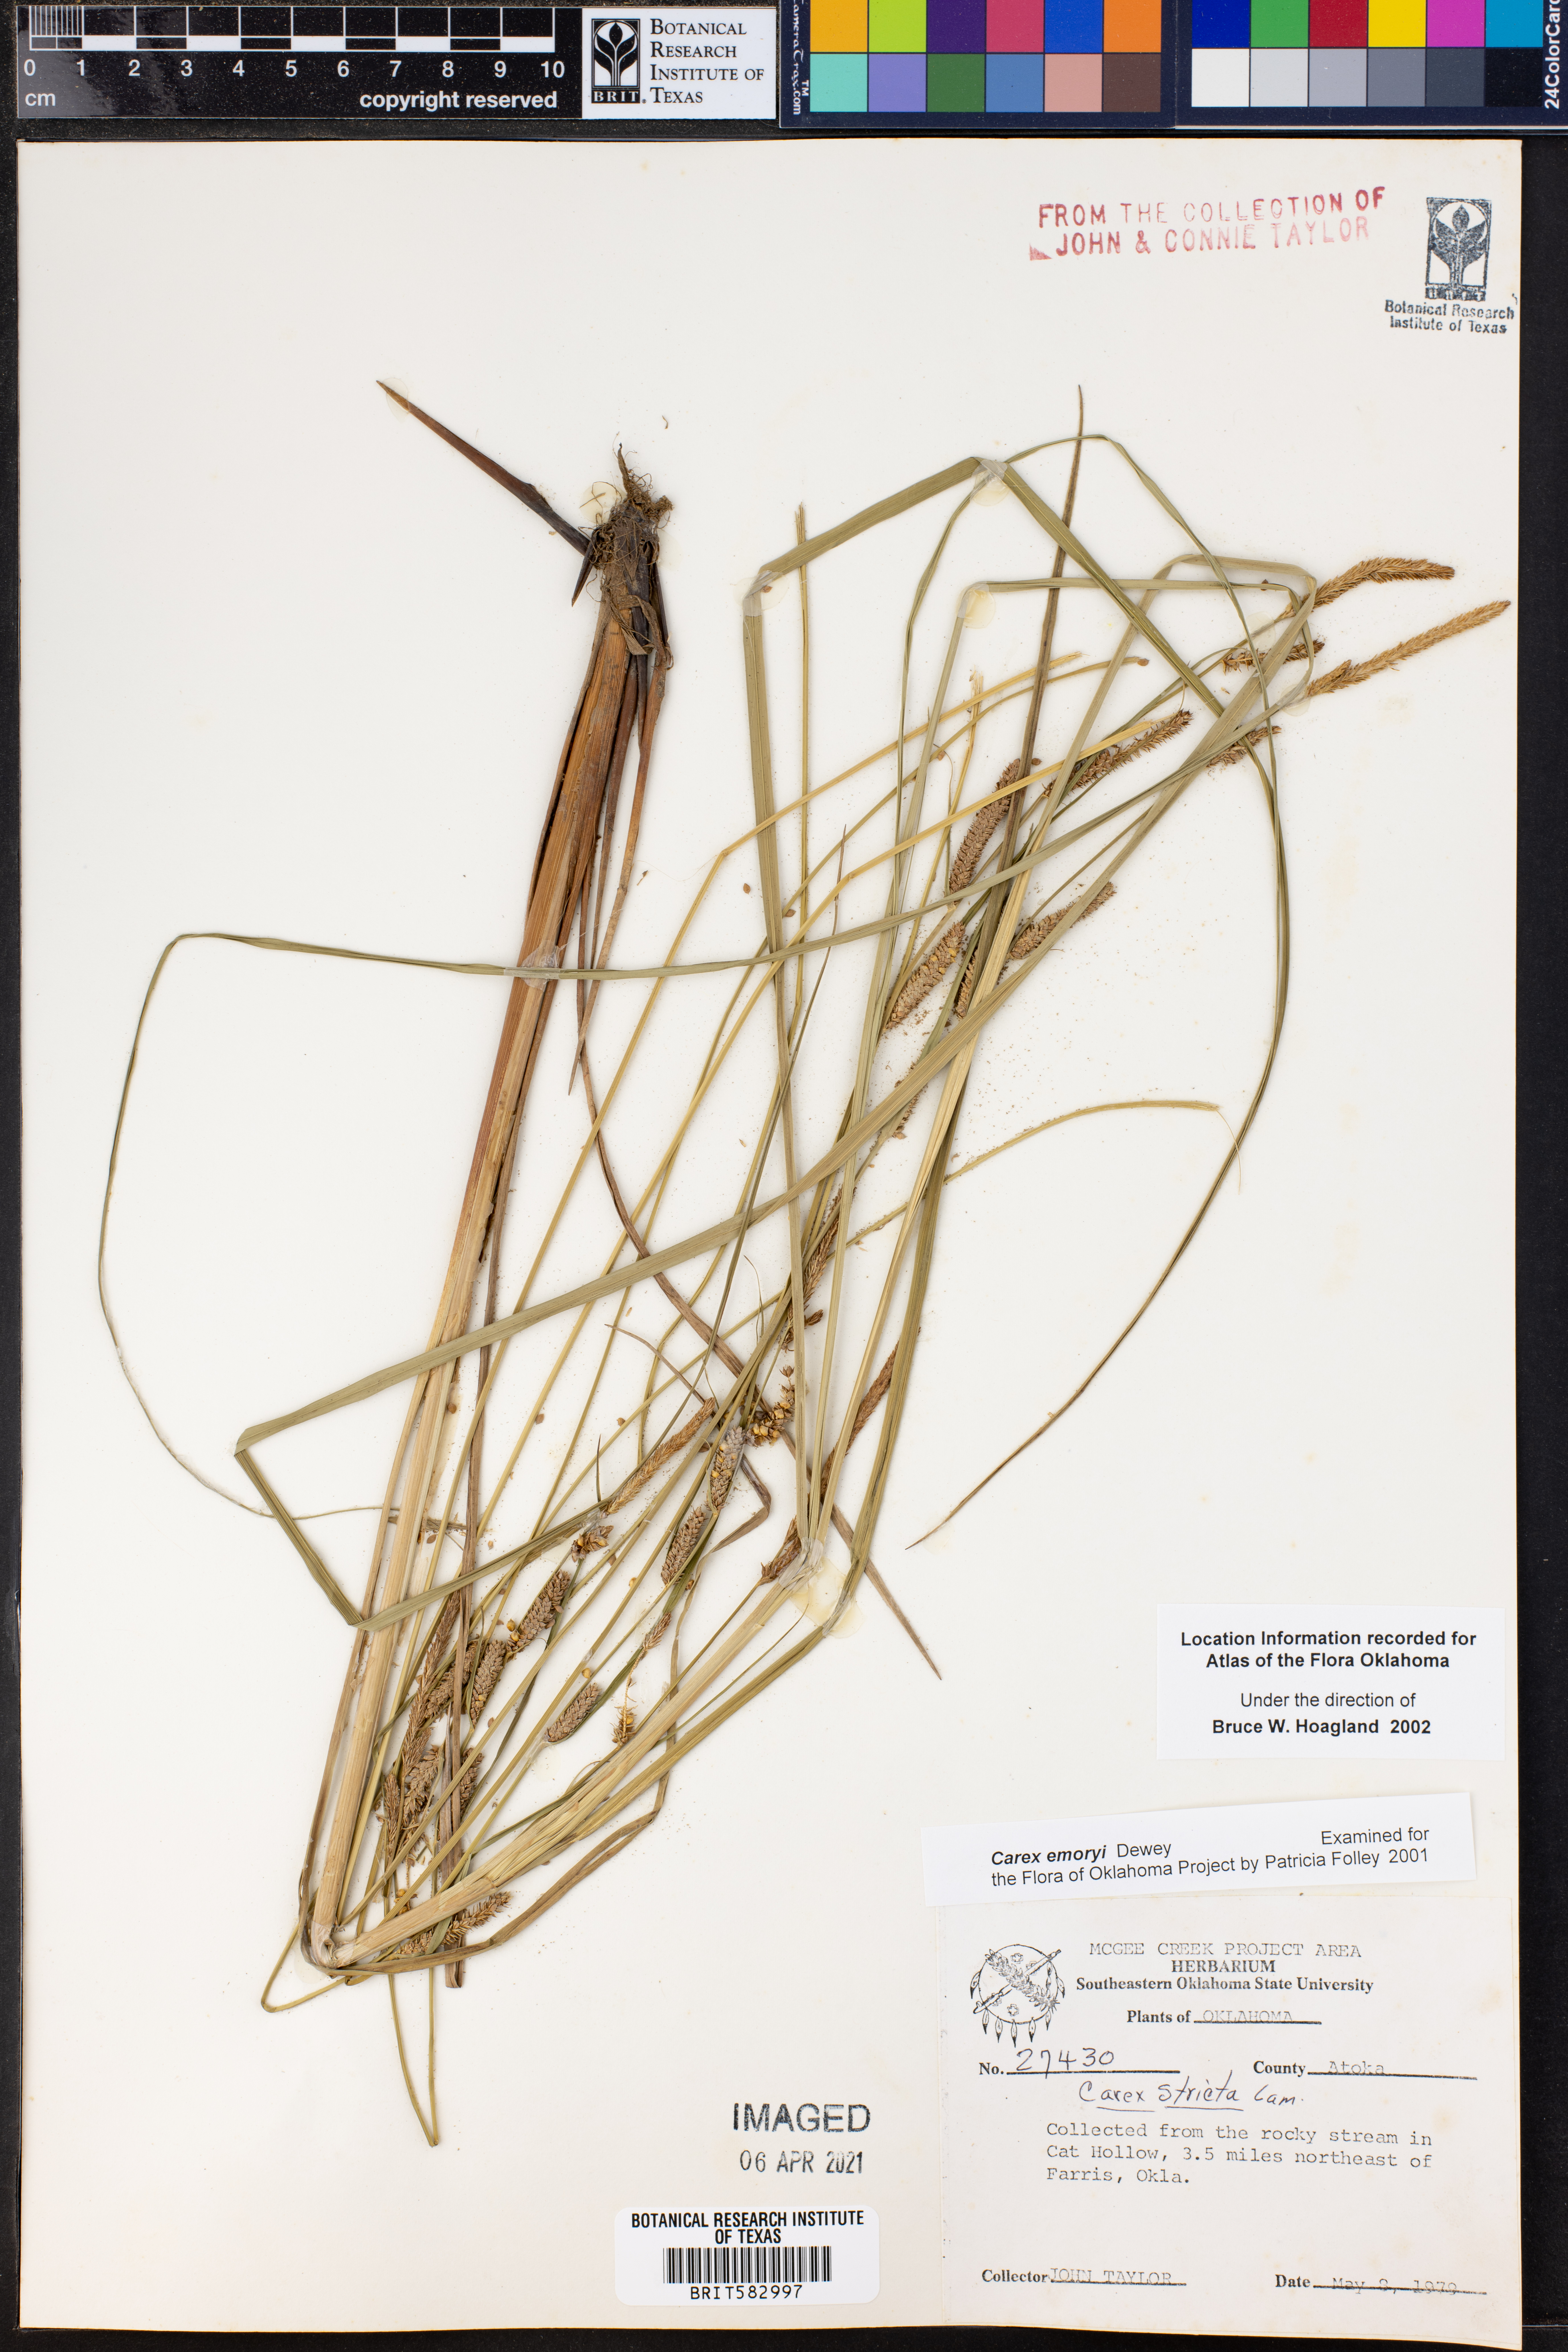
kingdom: Plantae
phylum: Tracheophyta
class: Liliopsida
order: Poales
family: Cyperaceae
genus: Carex
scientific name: Carex emoryi
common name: Emory's sedge
